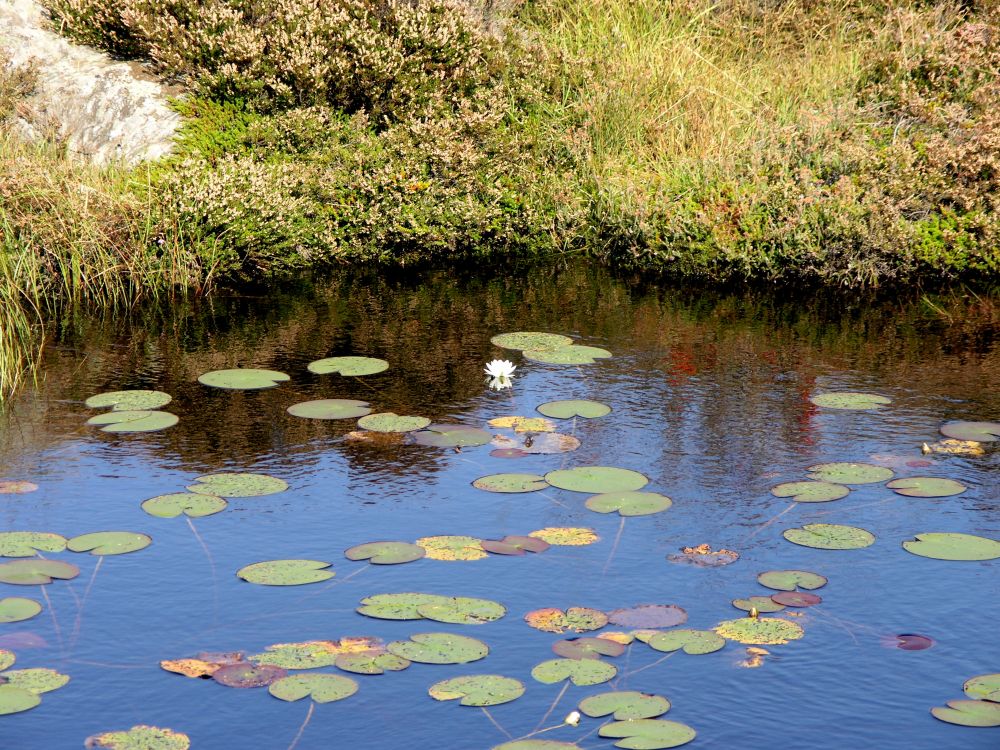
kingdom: Plantae
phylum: Tracheophyta
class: Magnoliopsida
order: Nymphaeales
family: Nymphaeaceae
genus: Nymphaea
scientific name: Nymphaea candida
